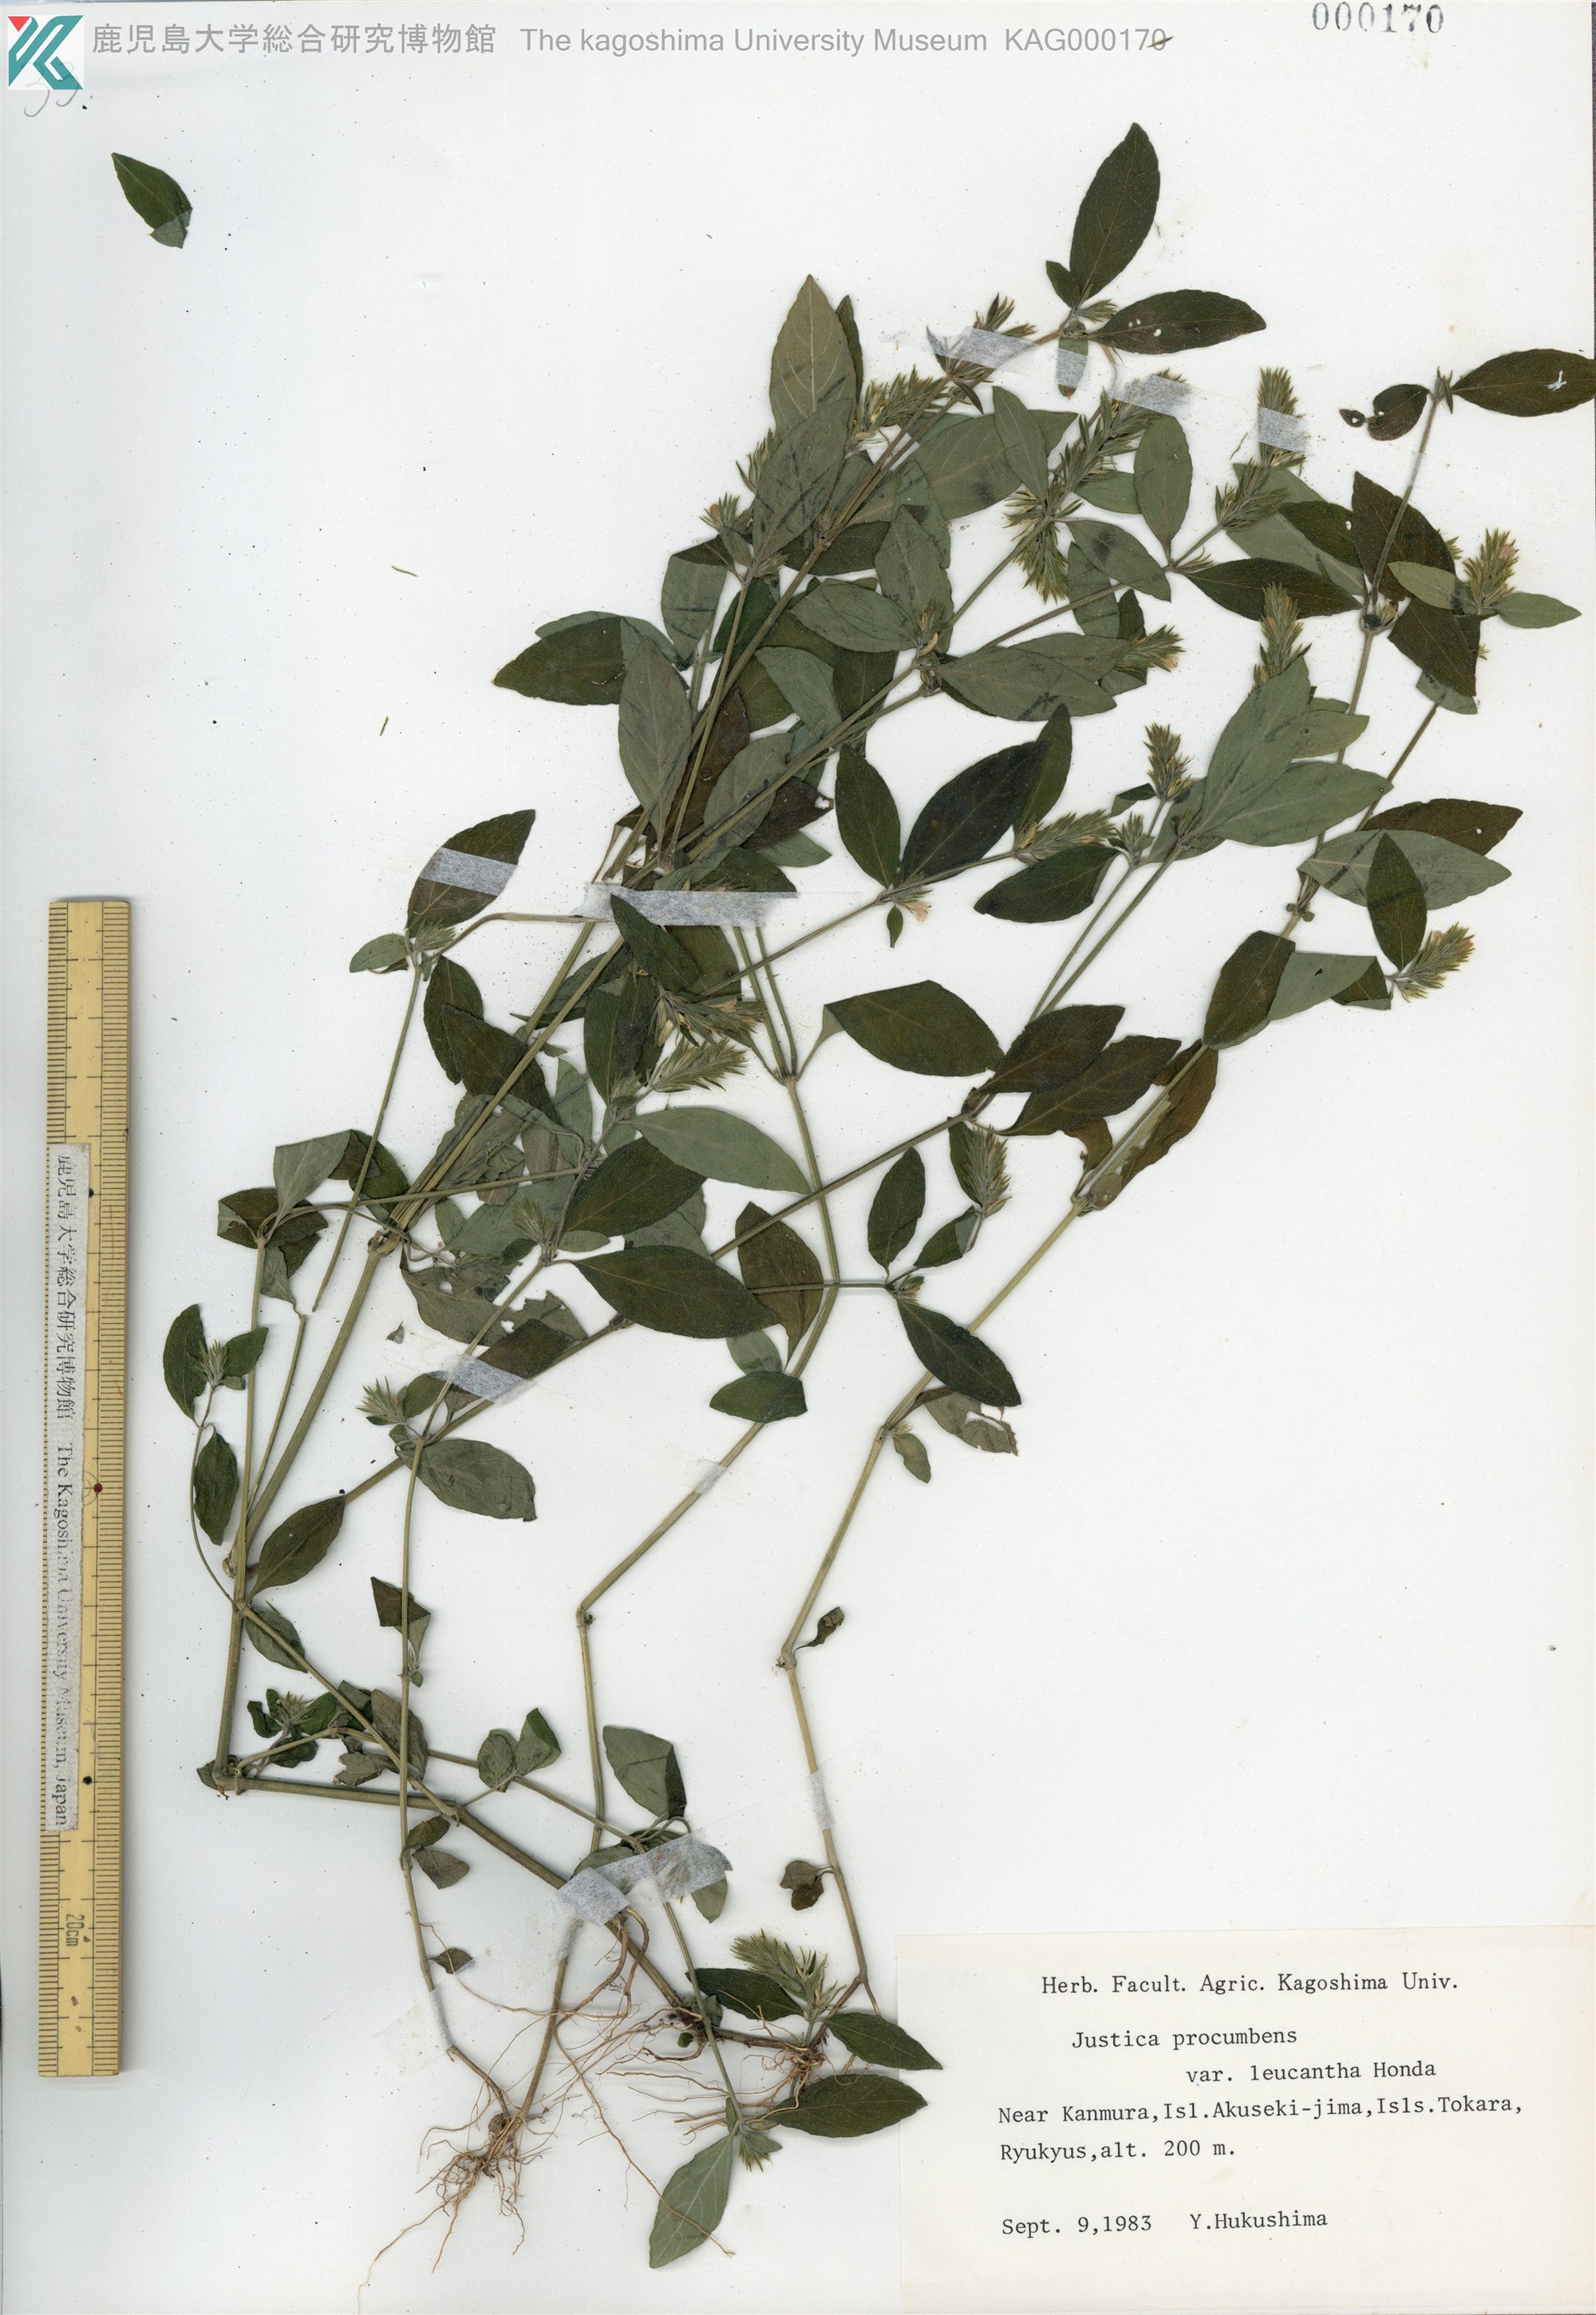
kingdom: Plantae
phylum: Tracheophyta
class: Magnoliopsida
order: Lamiales
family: Acanthaceae
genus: Rostellularia
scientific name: Rostellularia procumbens
